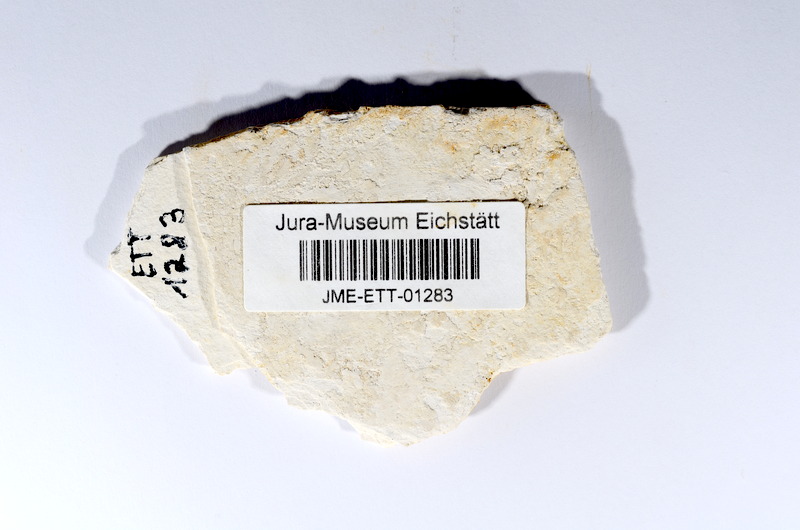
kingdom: Animalia
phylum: Chordata
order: Salmoniformes
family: Orthogonikleithridae
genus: Orthogonikleithrus
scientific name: Orthogonikleithrus hoelli
